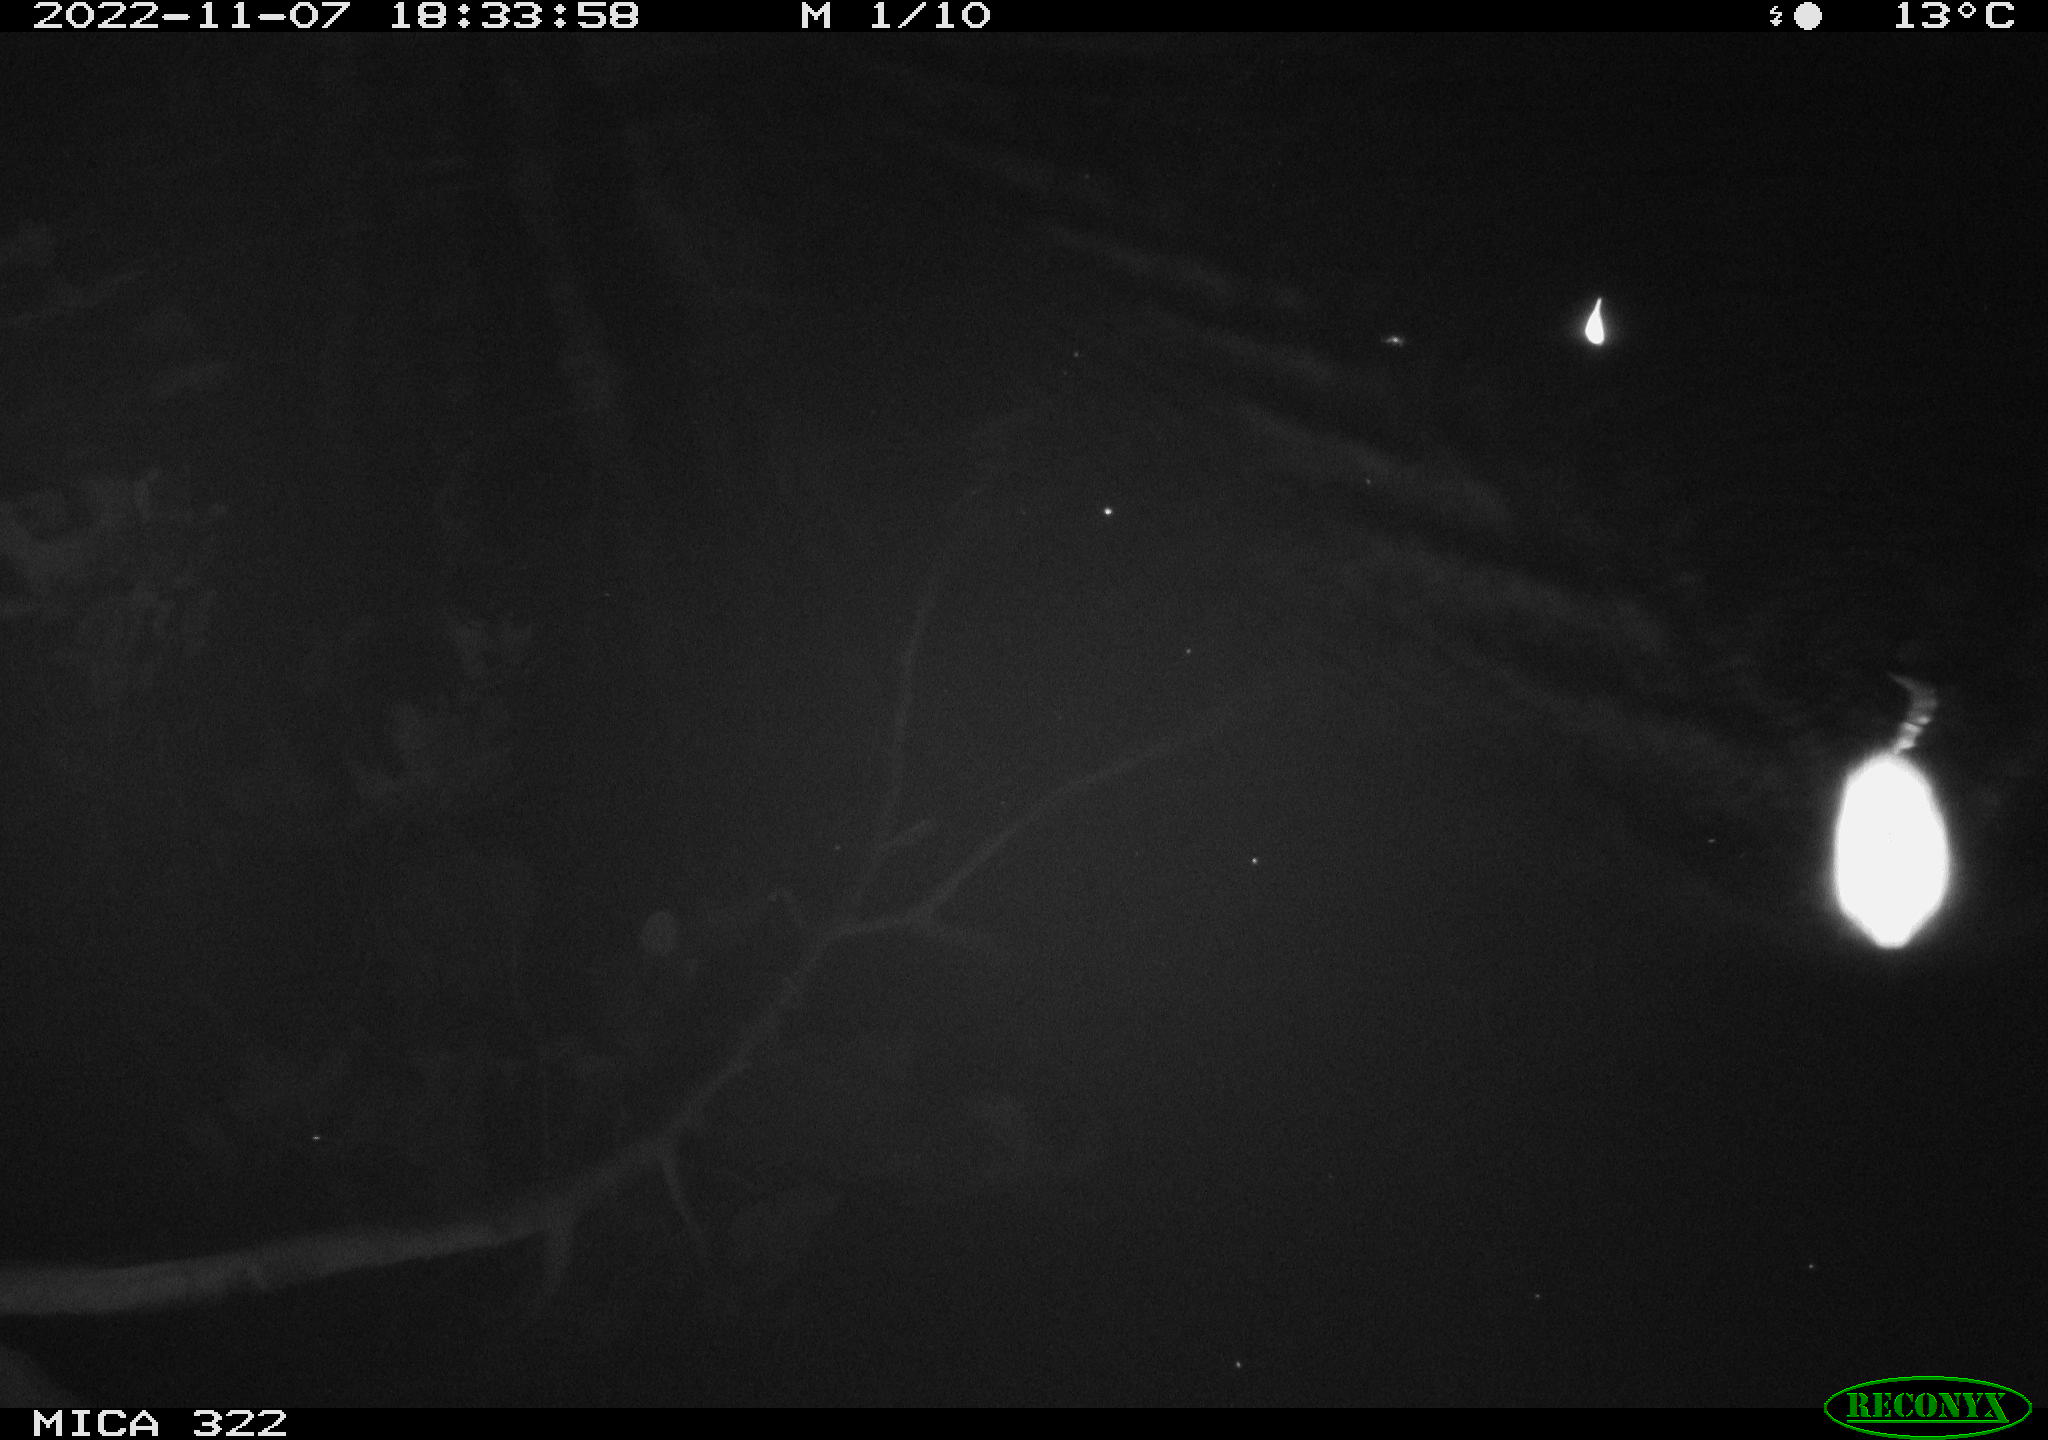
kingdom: Animalia
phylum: Chordata
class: Mammalia
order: Rodentia
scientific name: Rodentia
